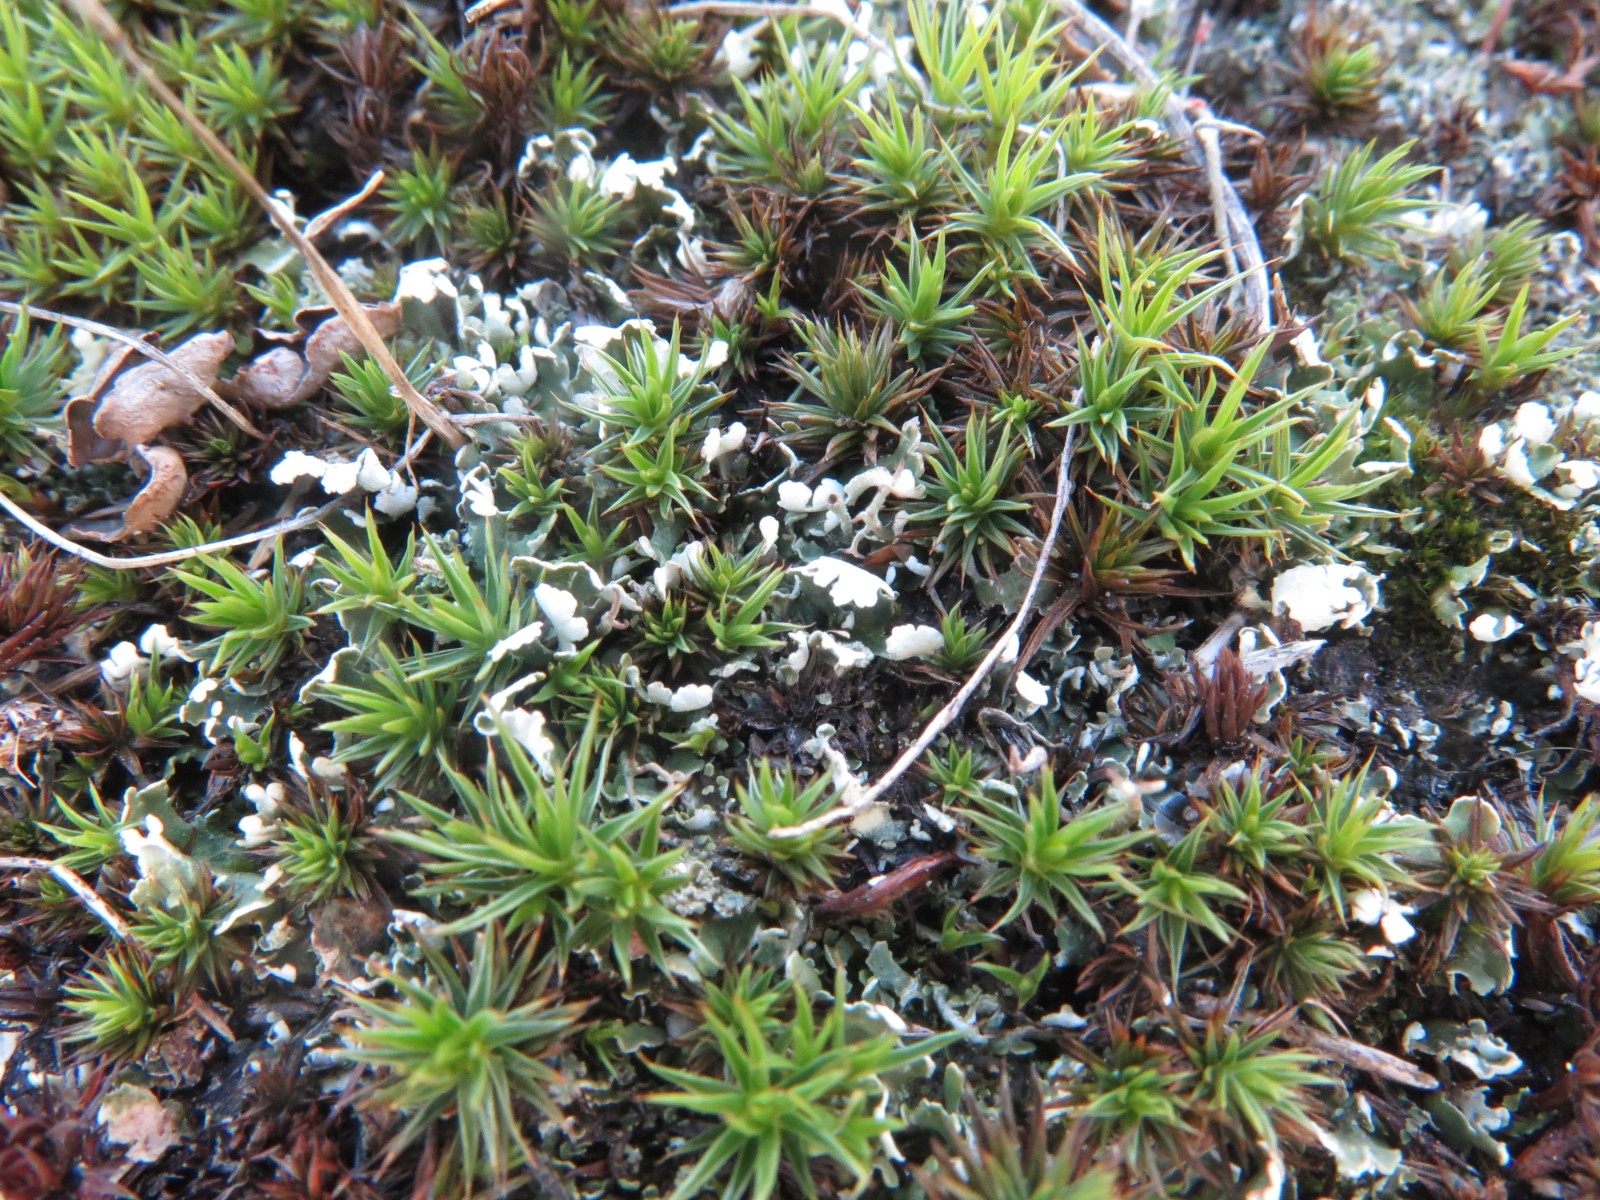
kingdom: Fungi
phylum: Ascomycota
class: Lecanoromycetes
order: Lecanorales
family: Cladoniaceae
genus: Cladonia
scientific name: Cladonia foliacea
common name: fliget bægerlav
